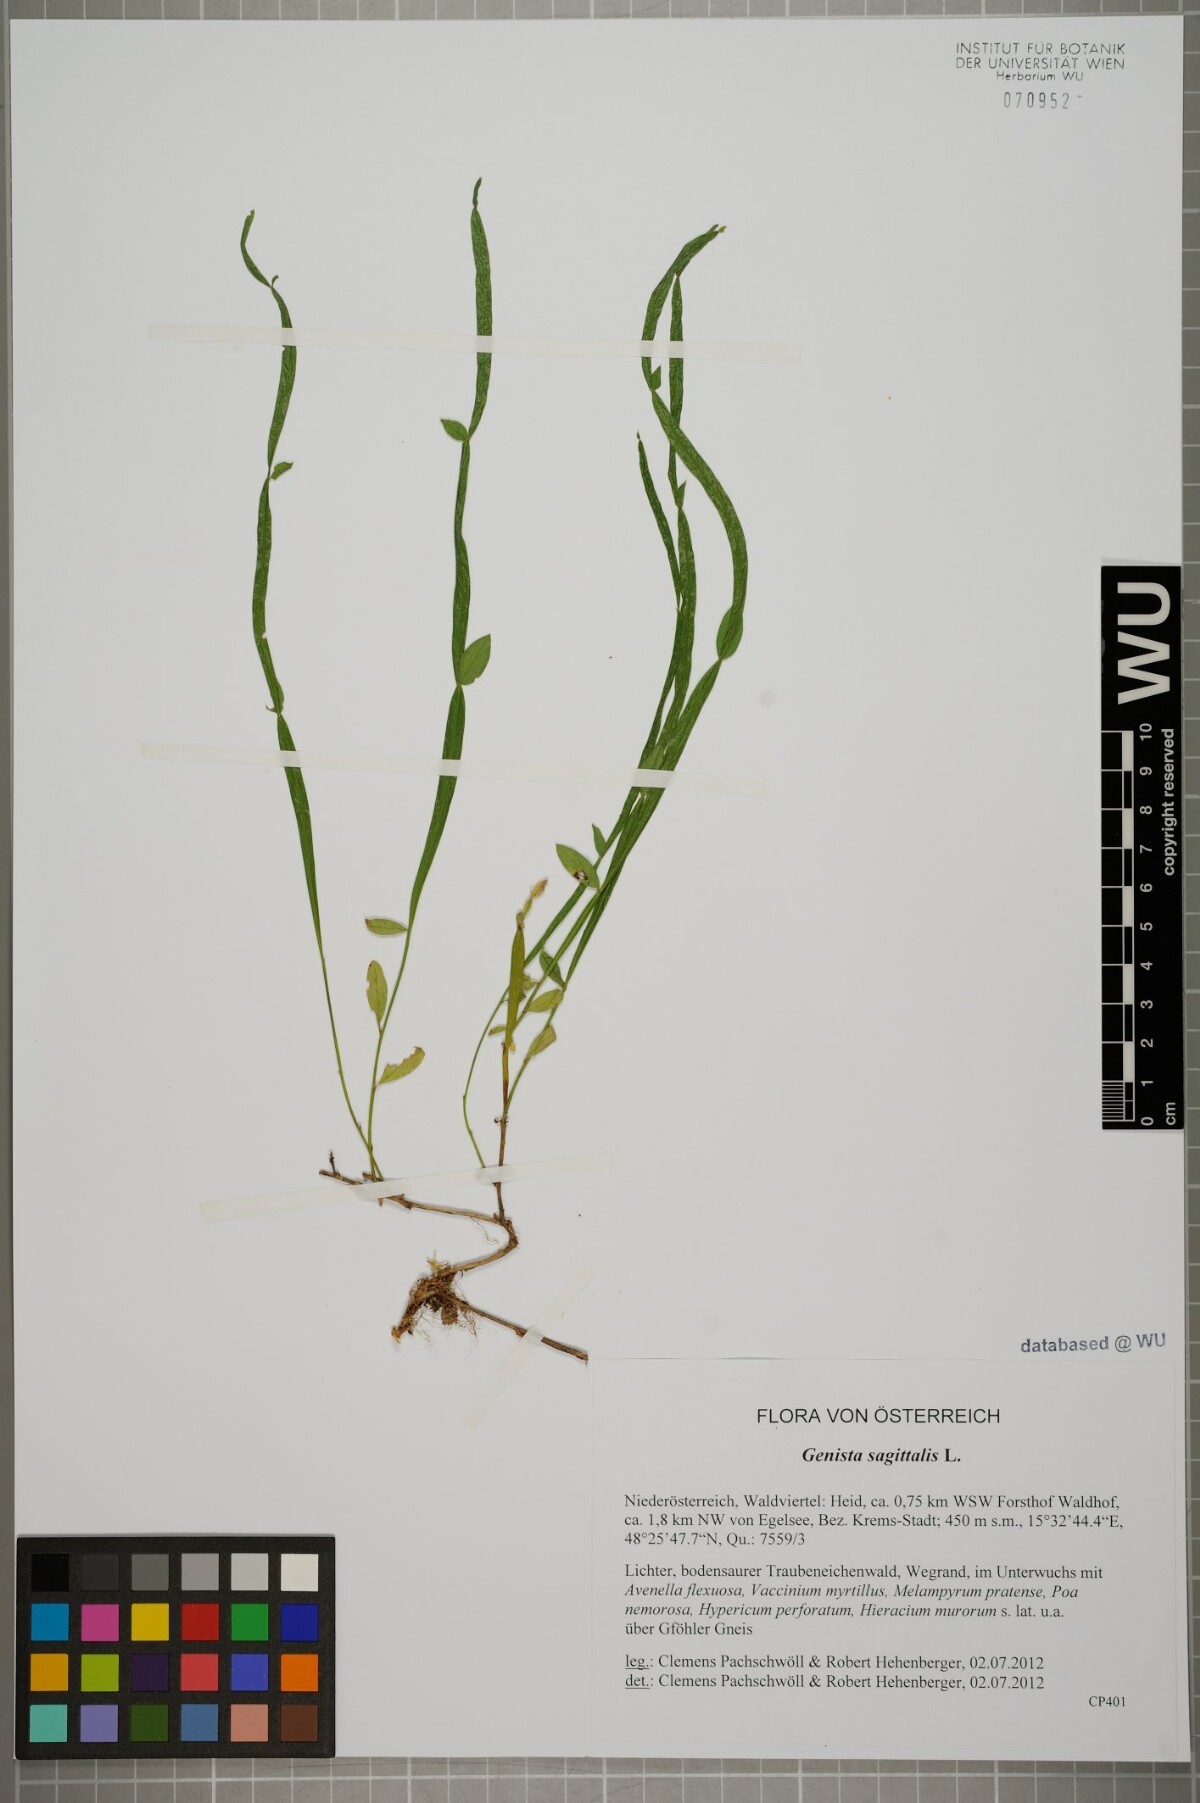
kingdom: Plantae
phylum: Tracheophyta
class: Magnoliopsida
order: Fabales
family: Fabaceae
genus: Genista
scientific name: Genista sagittalis
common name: Winged greenweed
